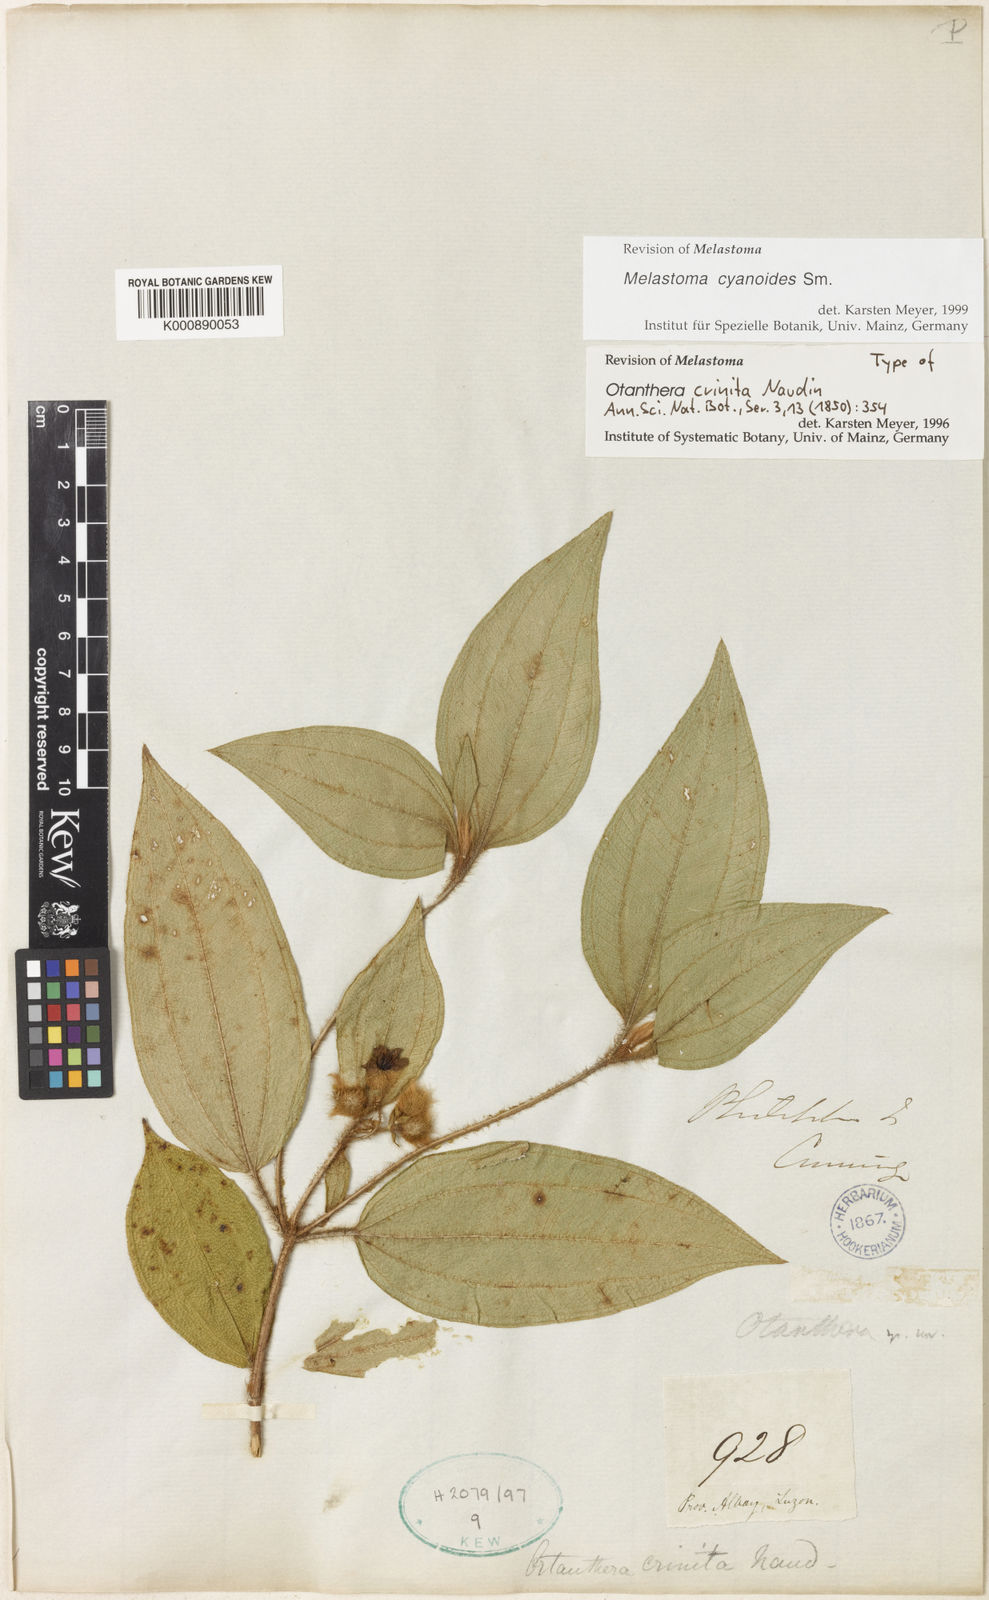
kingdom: Plantae
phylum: Tracheophyta
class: Magnoliopsida
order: Myrtales
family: Melastomataceae
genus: Melastoma
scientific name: Melastoma cyanoides
